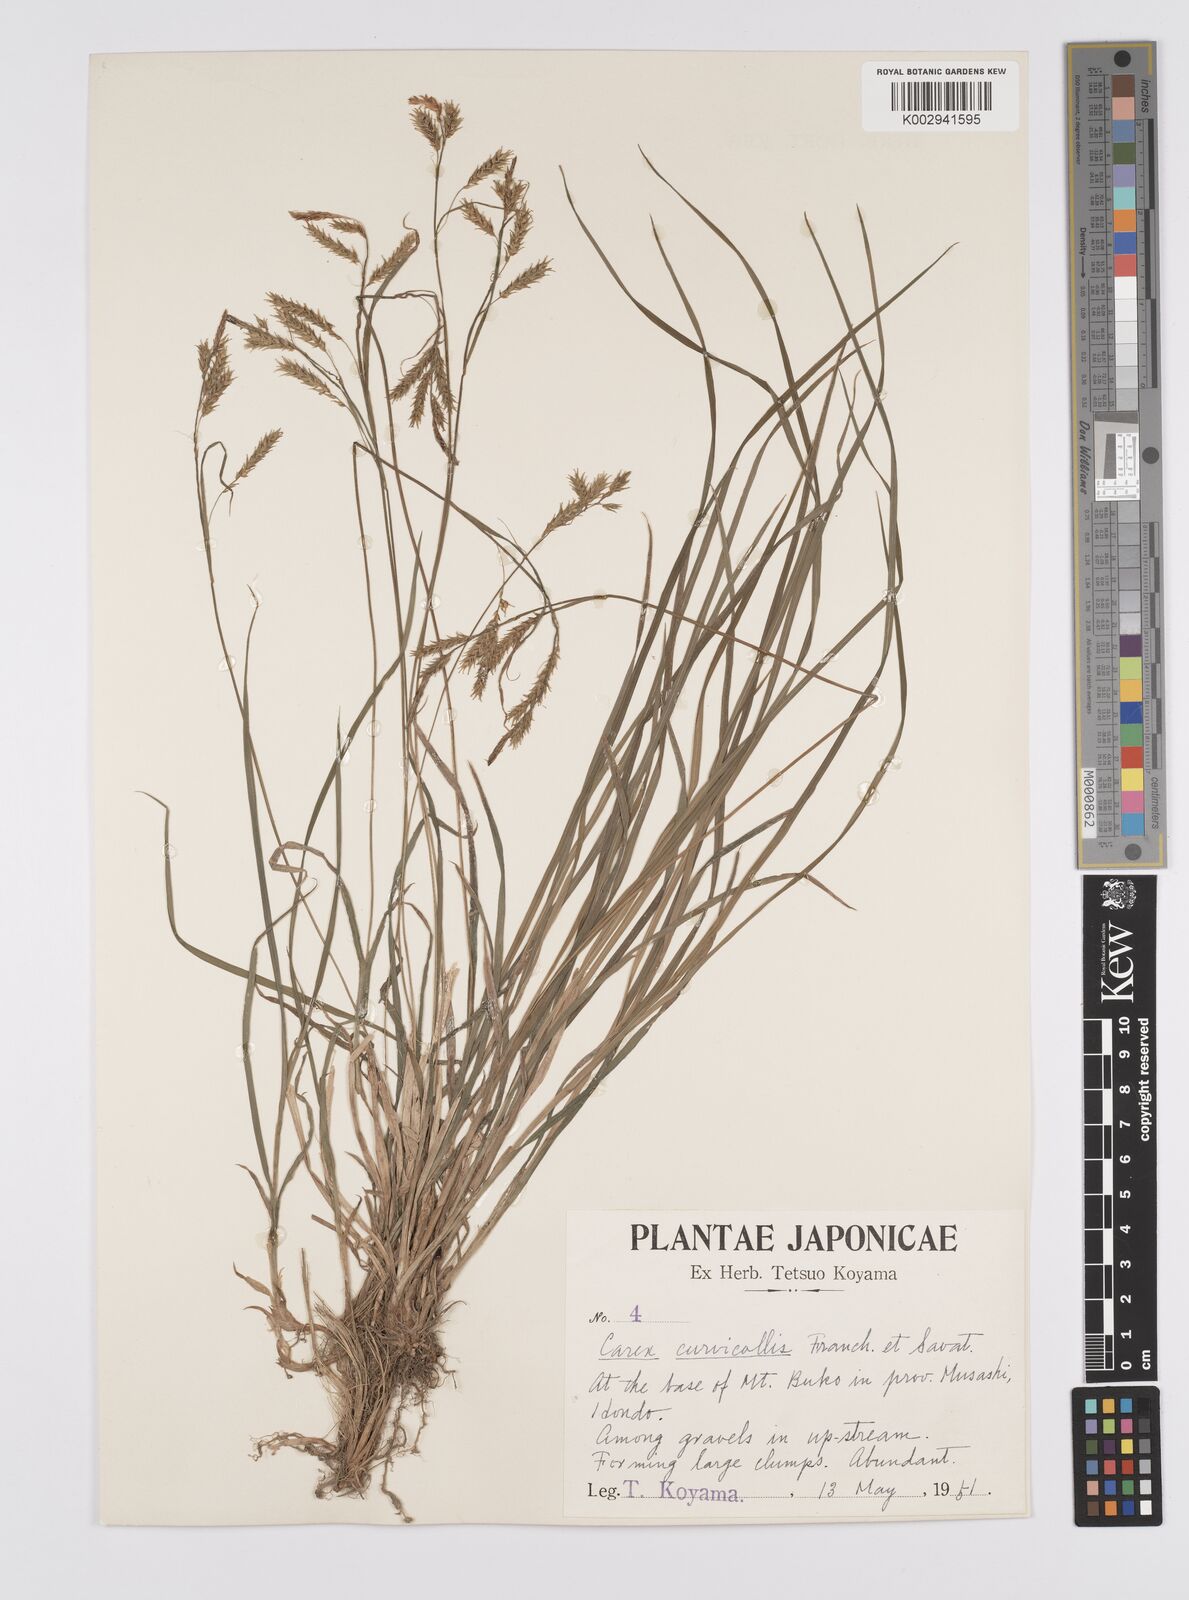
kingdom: Plantae
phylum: Tracheophyta
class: Liliopsida
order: Poales
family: Cyperaceae
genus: Carex
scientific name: Carex curvicollis
